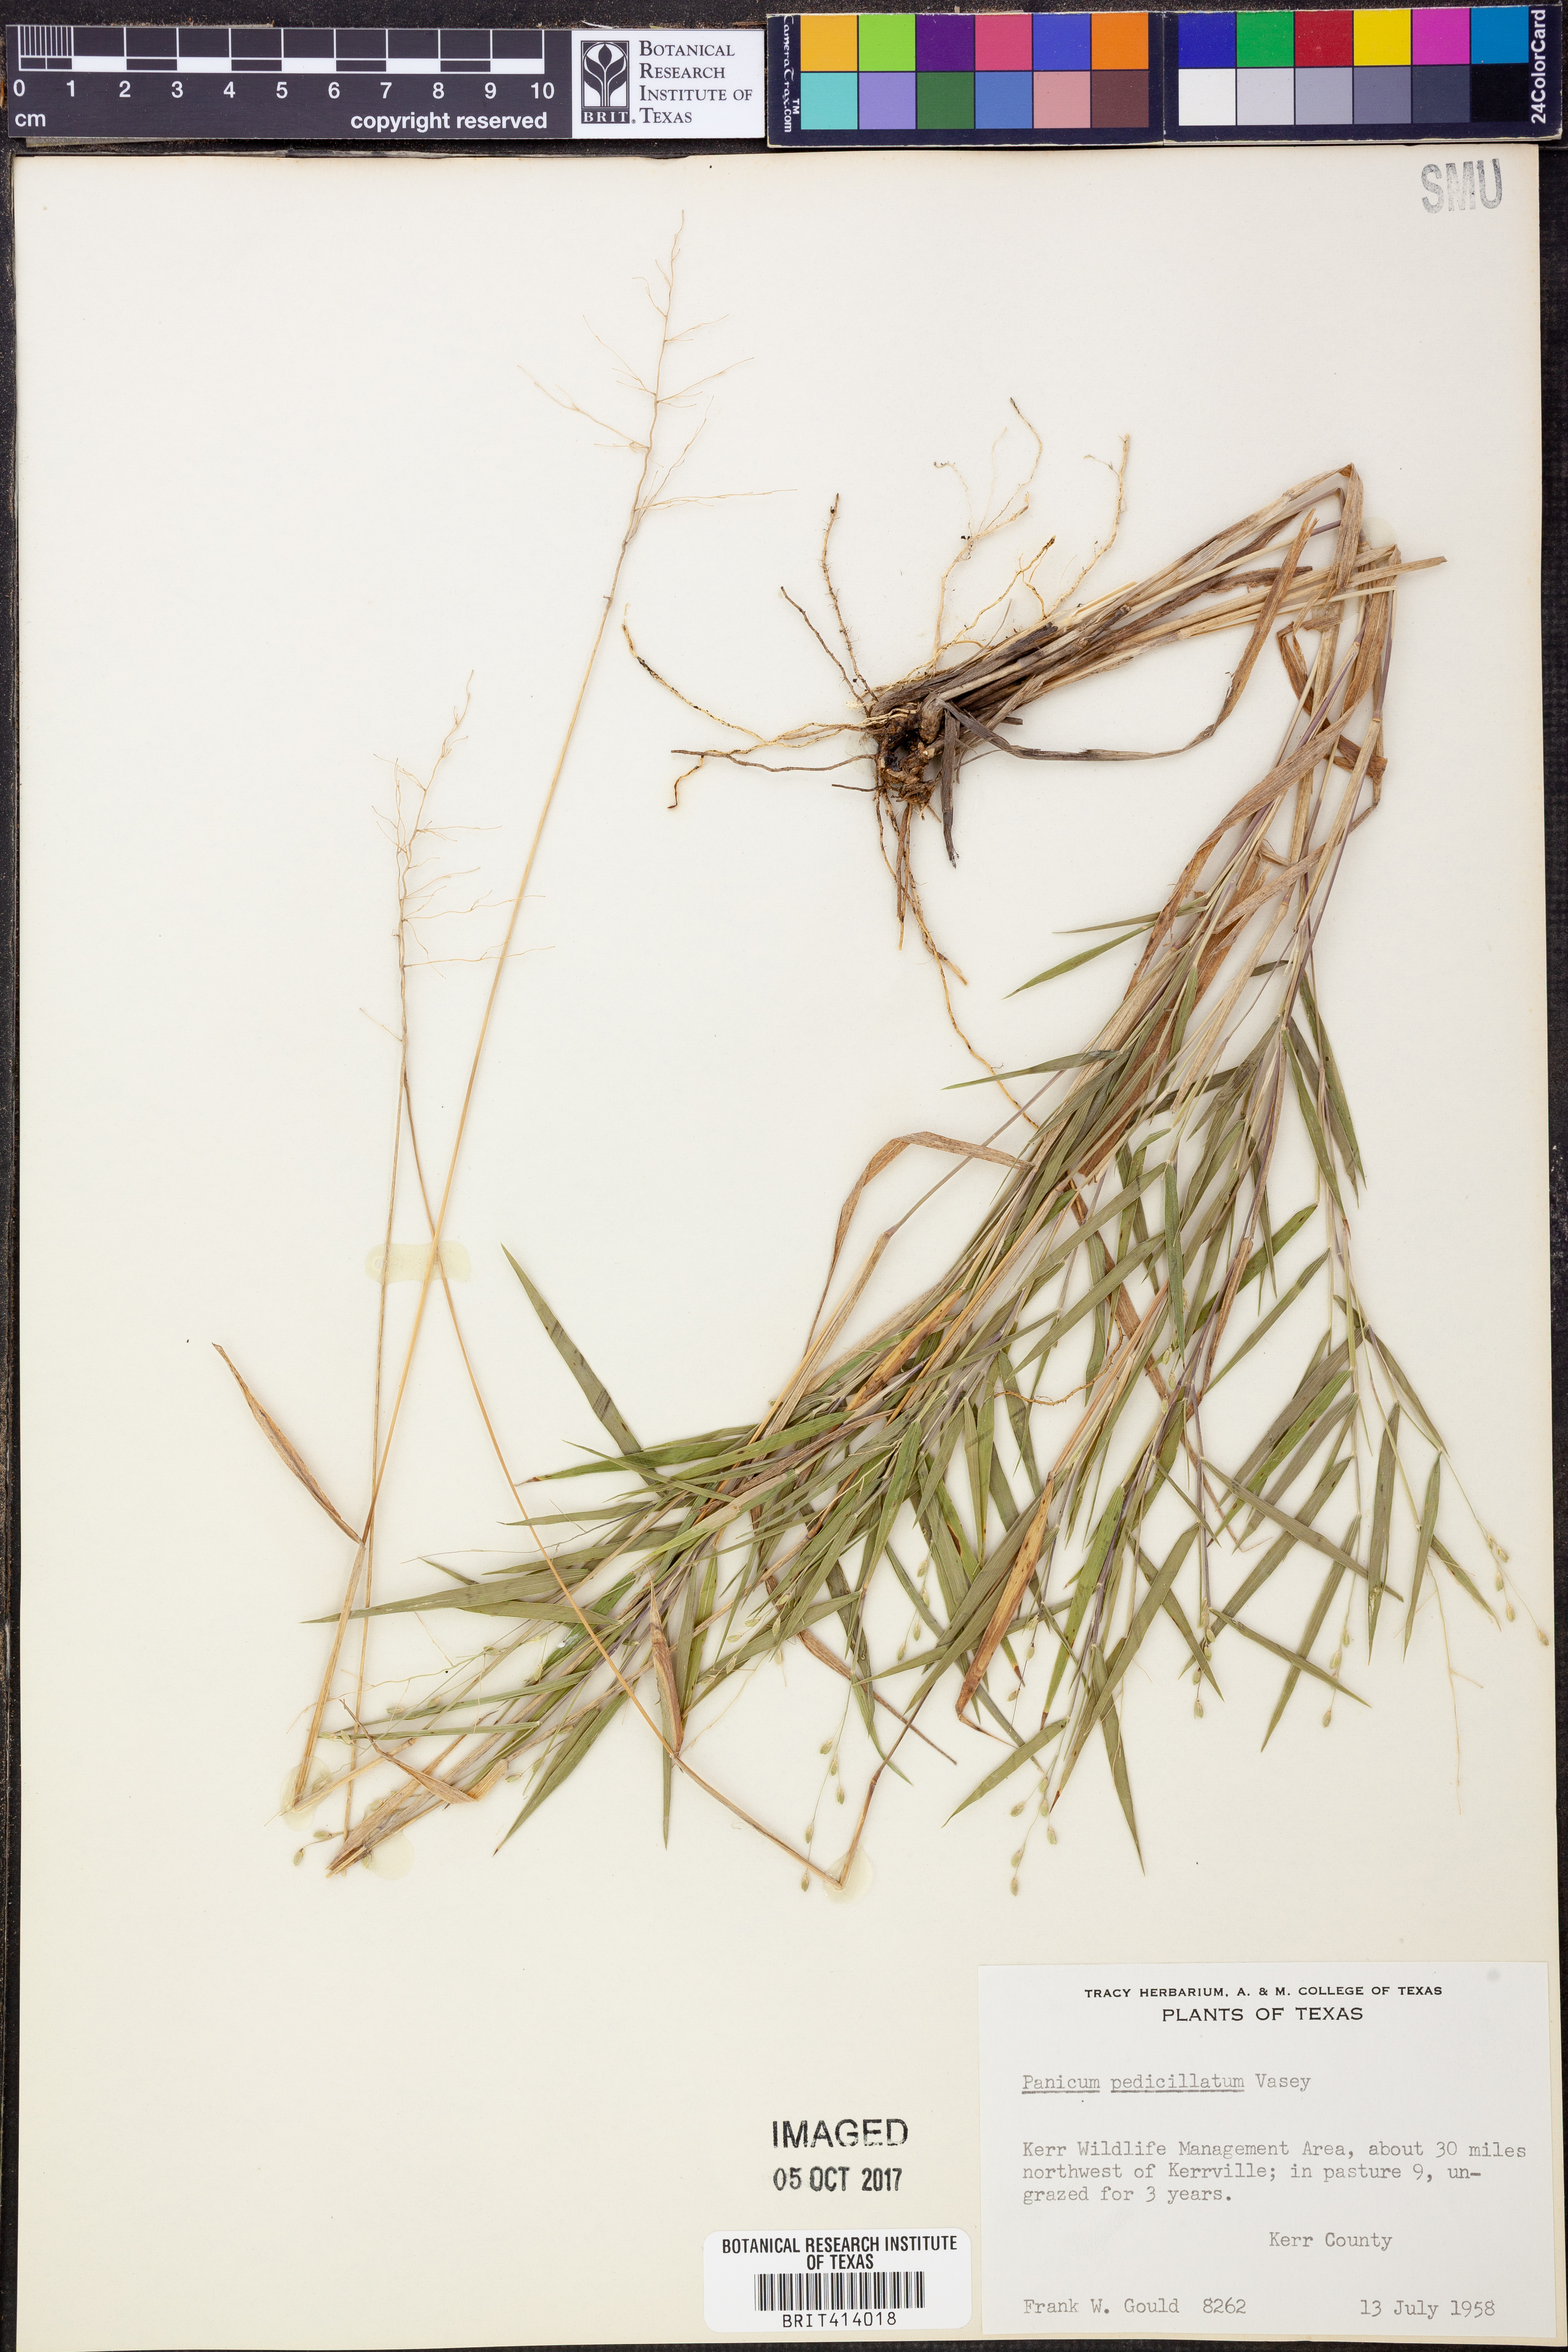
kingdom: Plantae
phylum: Tracheophyta
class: Liliopsida
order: Poales
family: Poaceae
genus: Dichanthelium
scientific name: Dichanthelium transiens
